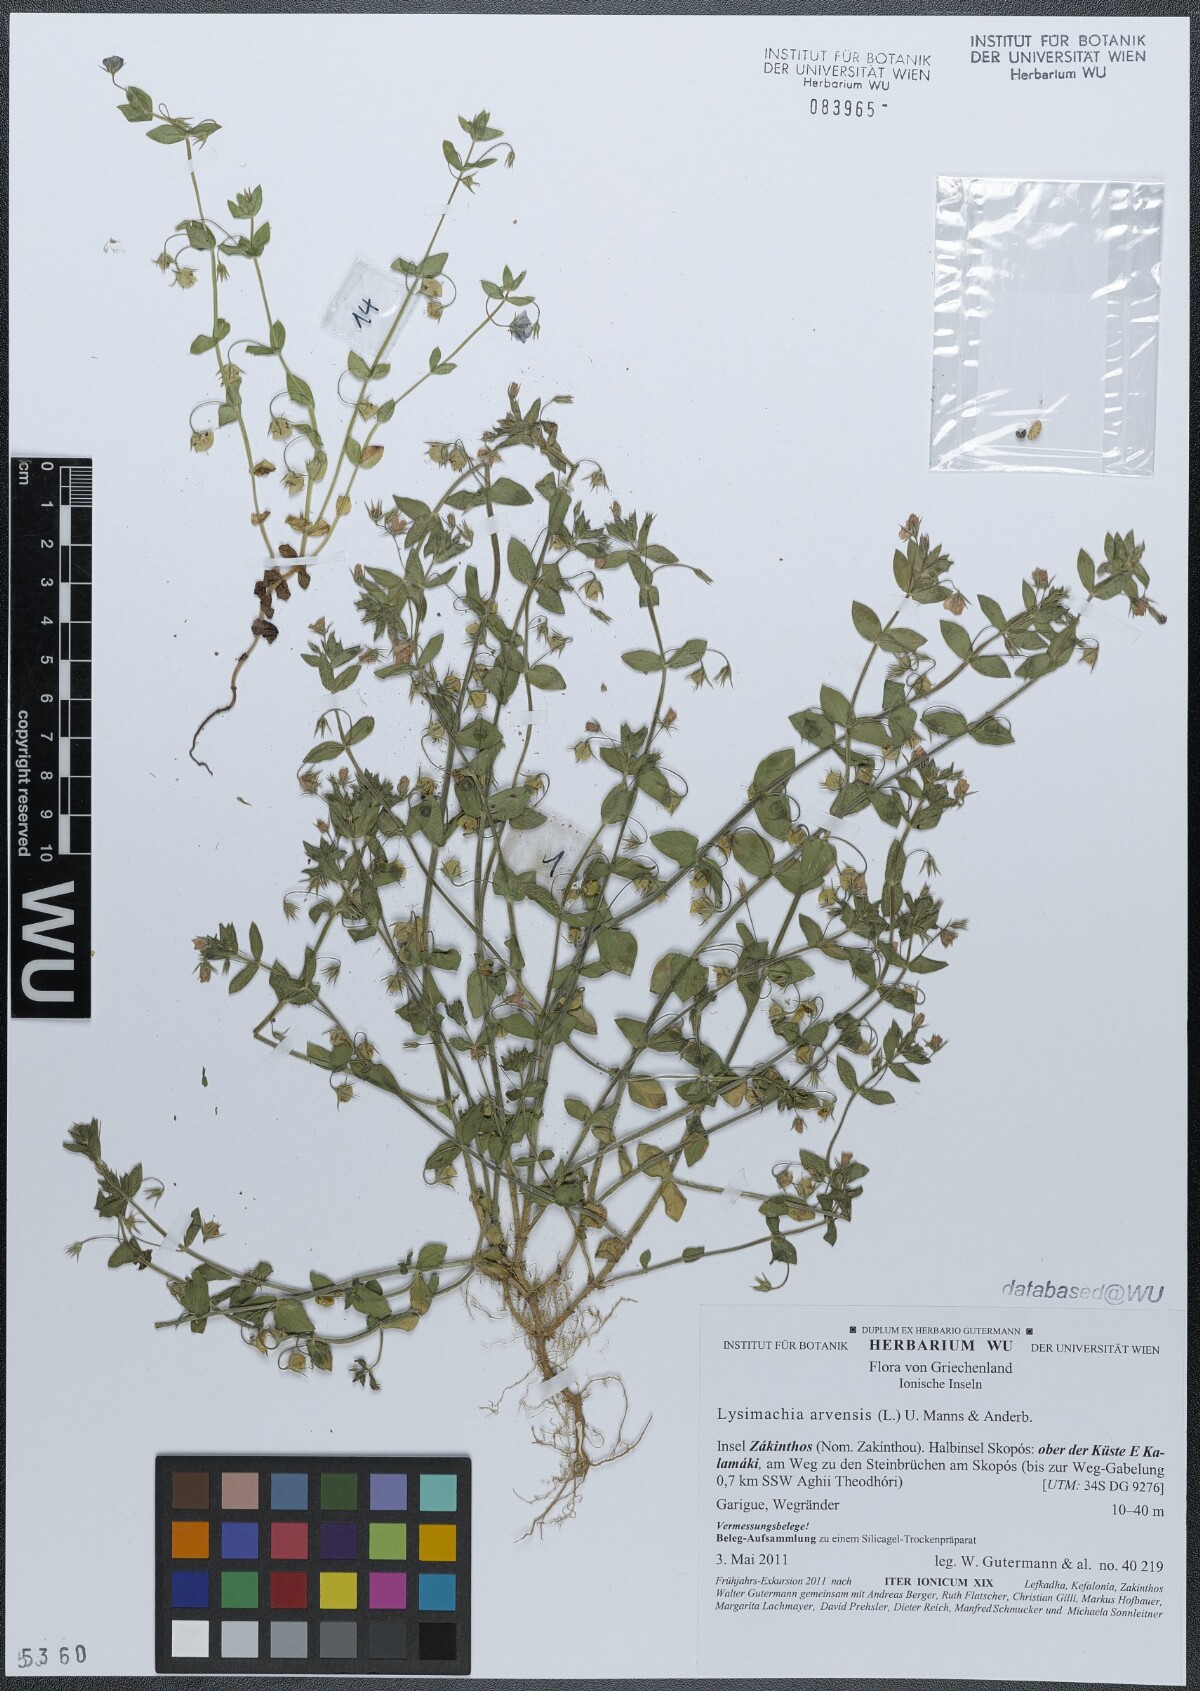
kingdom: Plantae
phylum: Tracheophyta
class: Magnoliopsida
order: Ericales
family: Primulaceae
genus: Lysimachia
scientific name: Lysimachia arvensis
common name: Scarlet pimpernel
